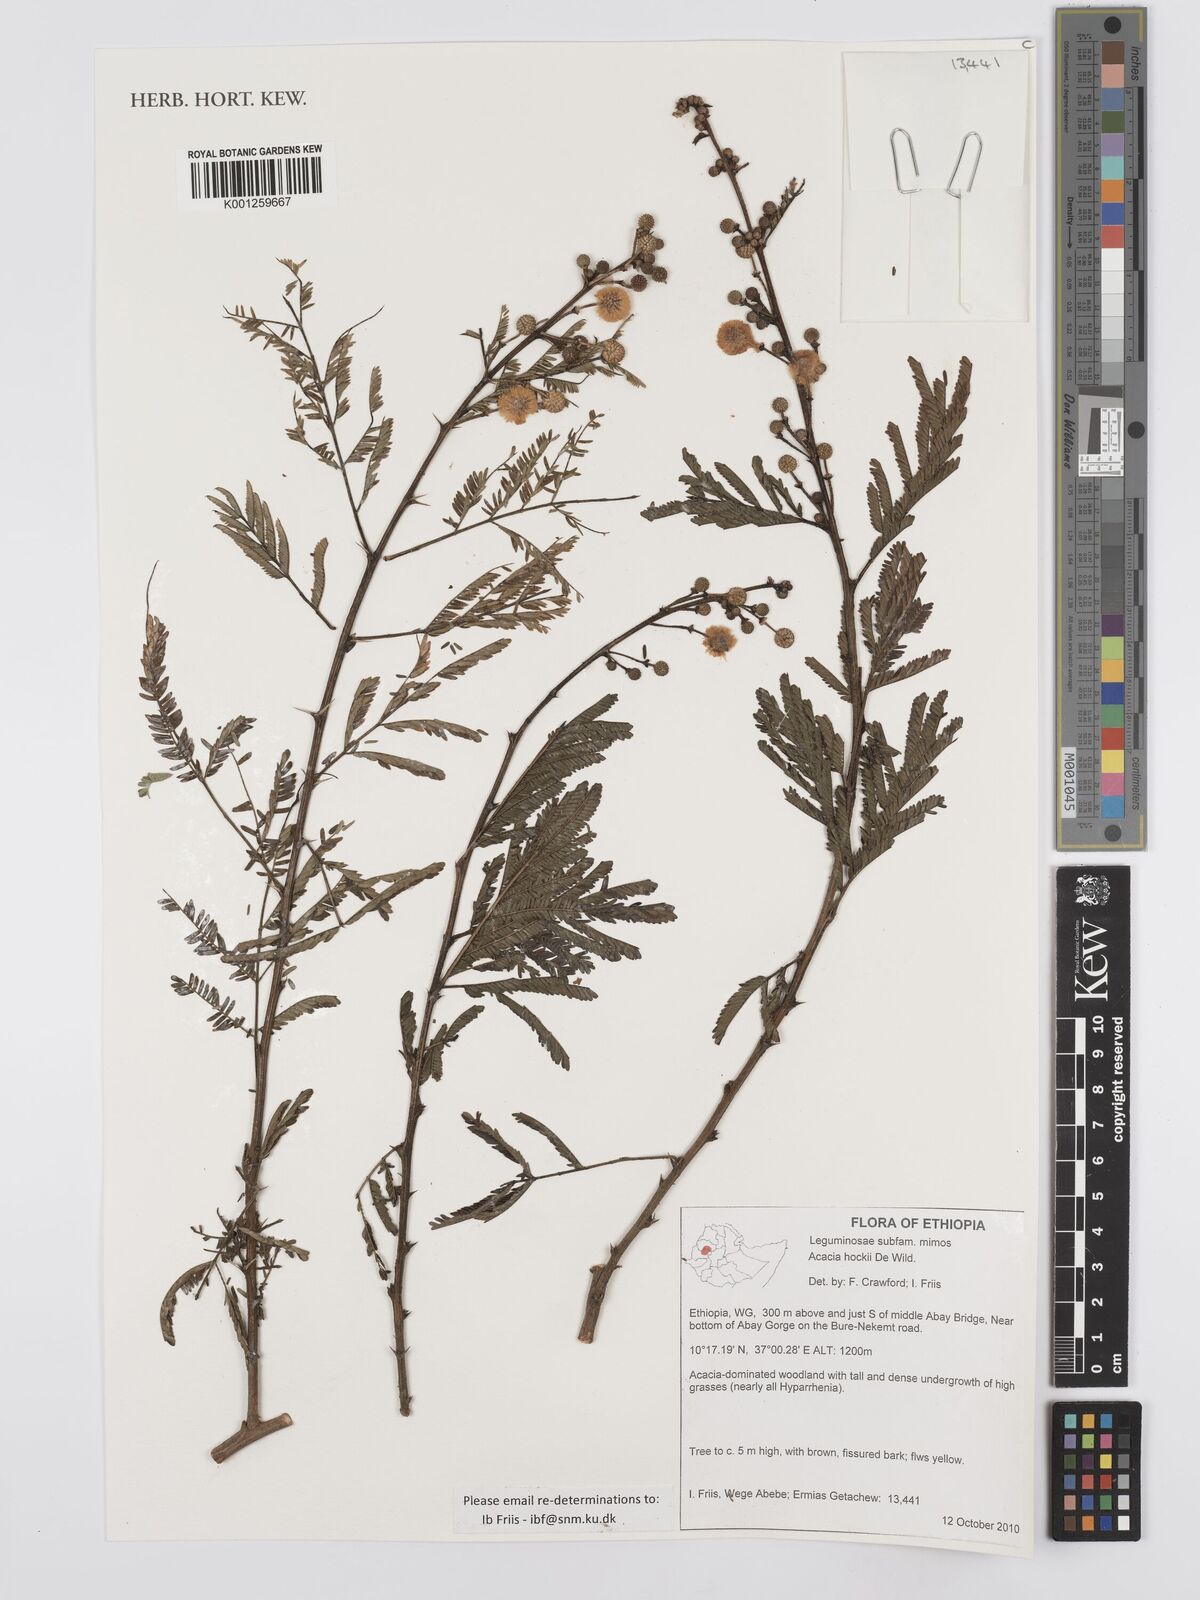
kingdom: Plantae
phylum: Tracheophyta
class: Magnoliopsida
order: Fabales
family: Fabaceae
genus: Vachellia
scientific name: Vachellia hockii
